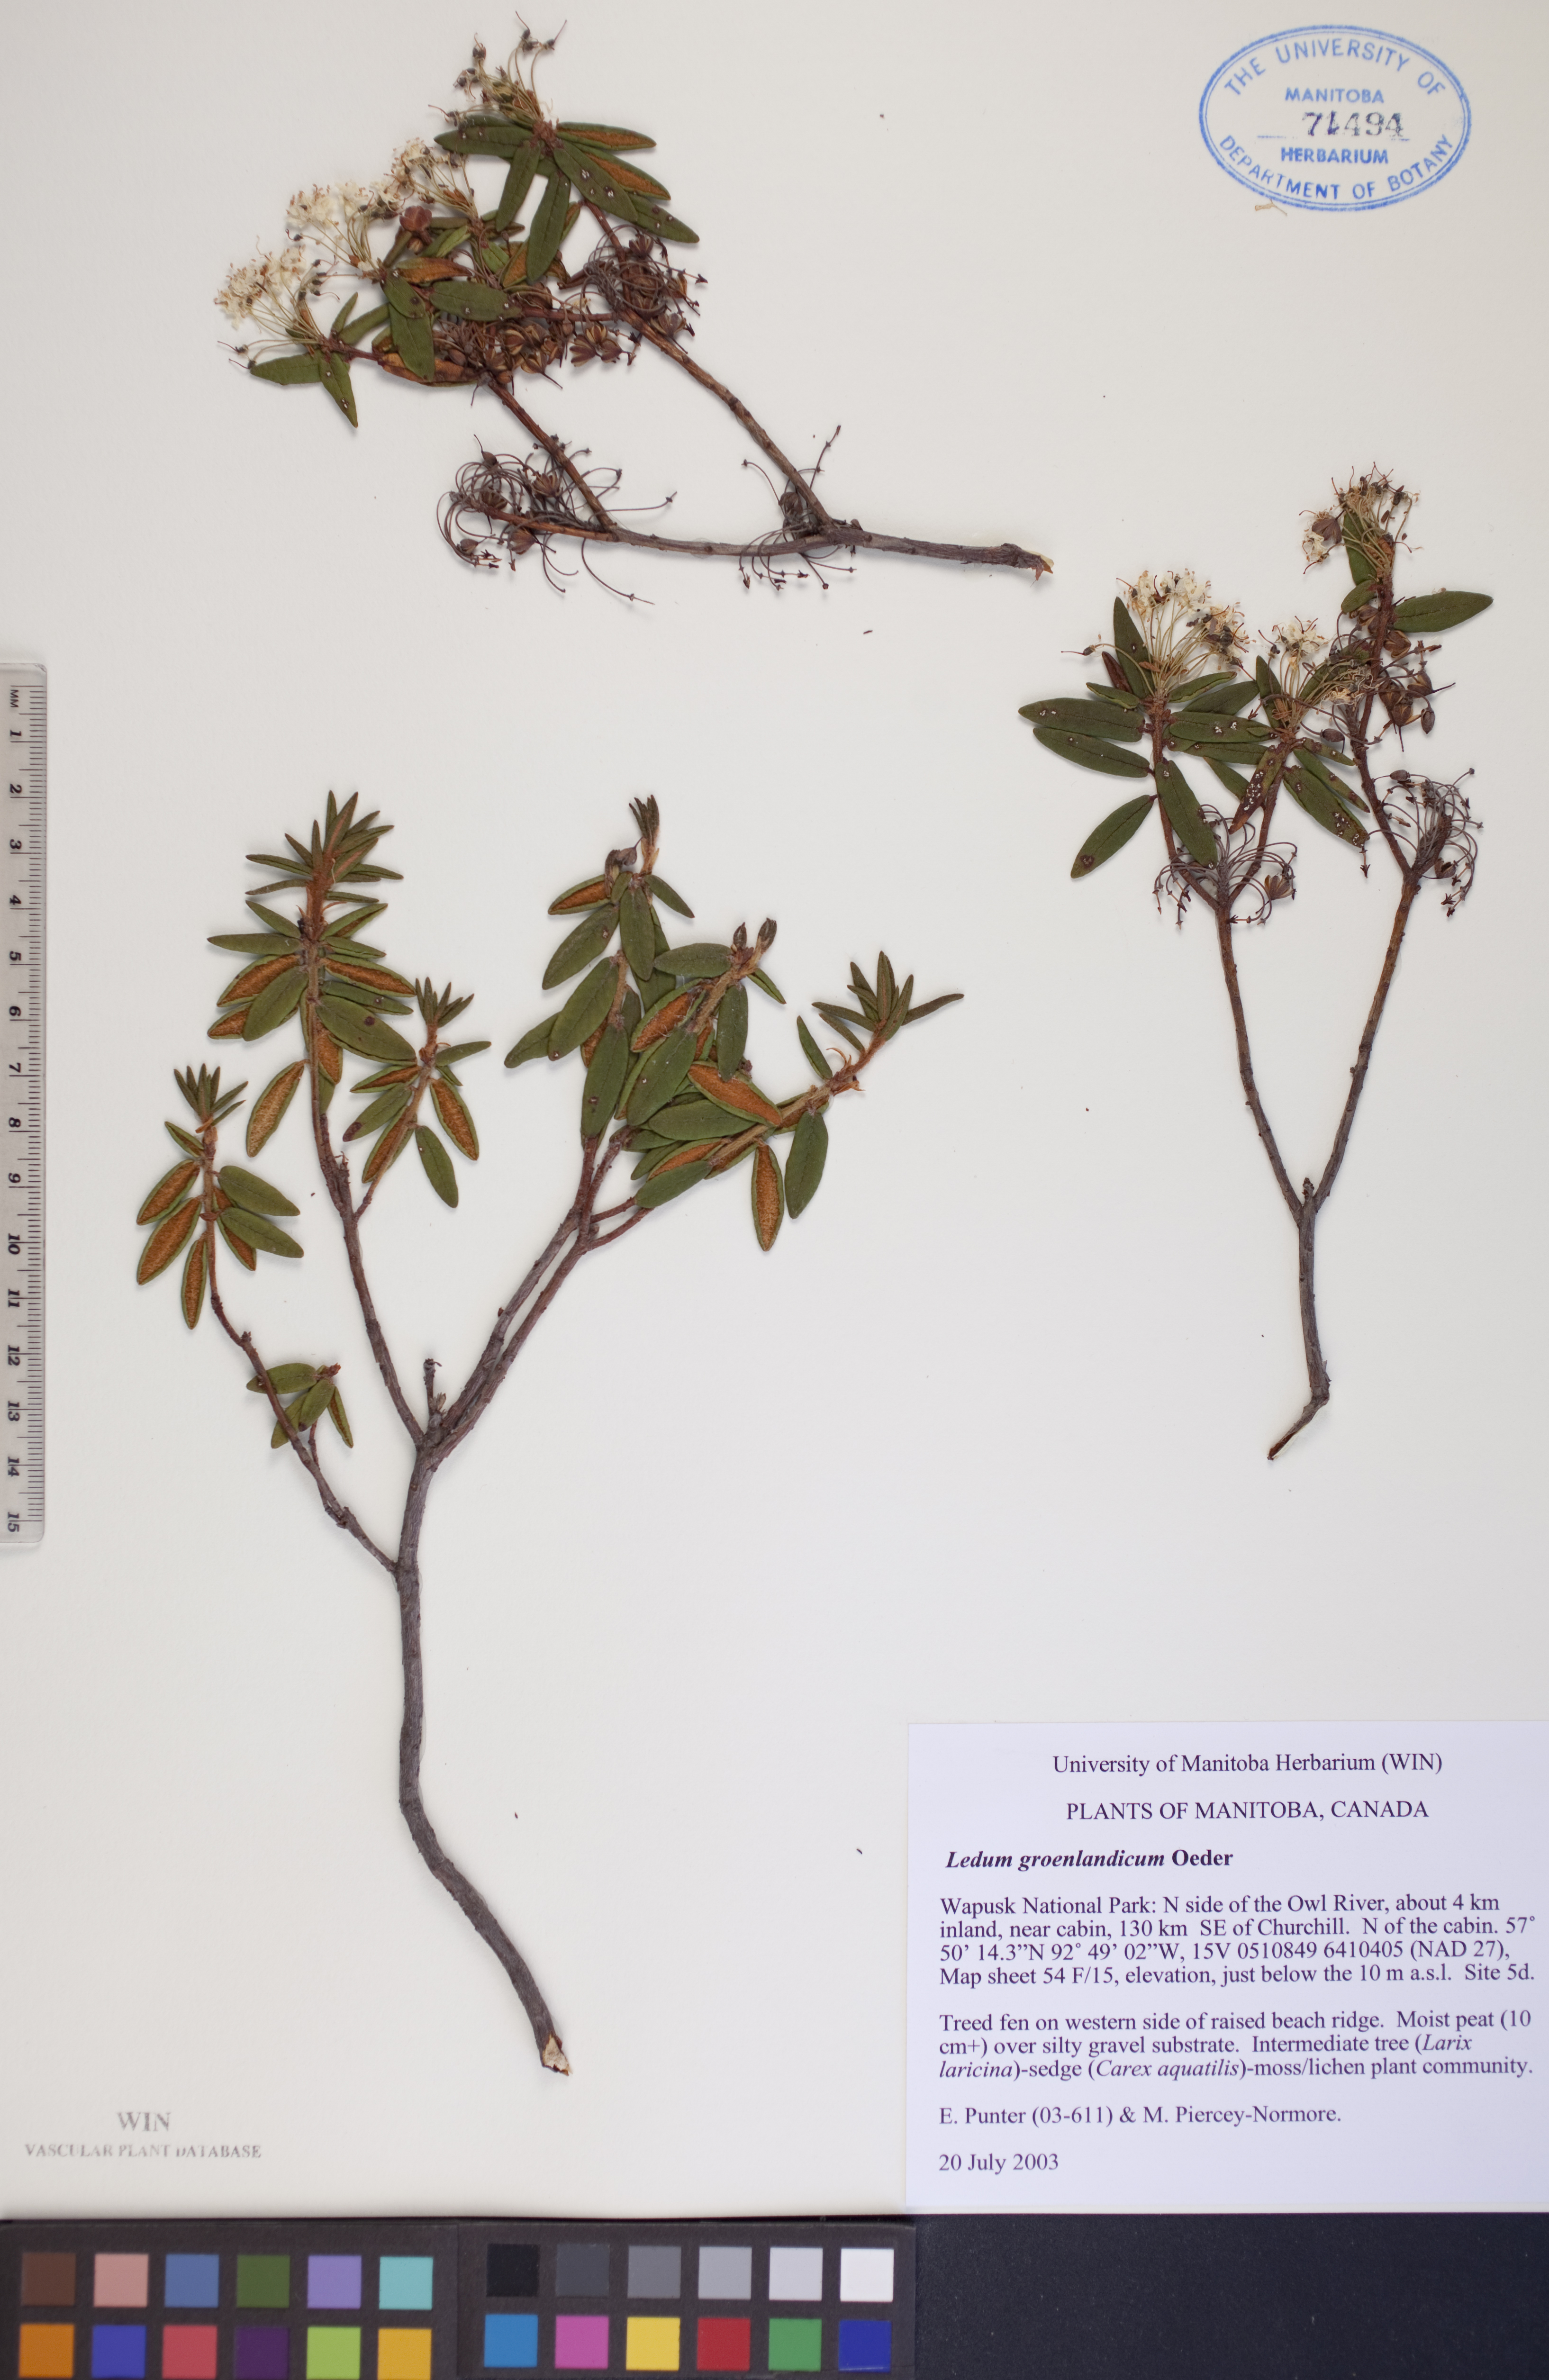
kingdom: Plantae
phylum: Tracheophyta
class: Magnoliopsida
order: Ericales
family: Ericaceae
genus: Rhododendron
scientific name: Rhododendron groenlandicum
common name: Bog labrador tea
